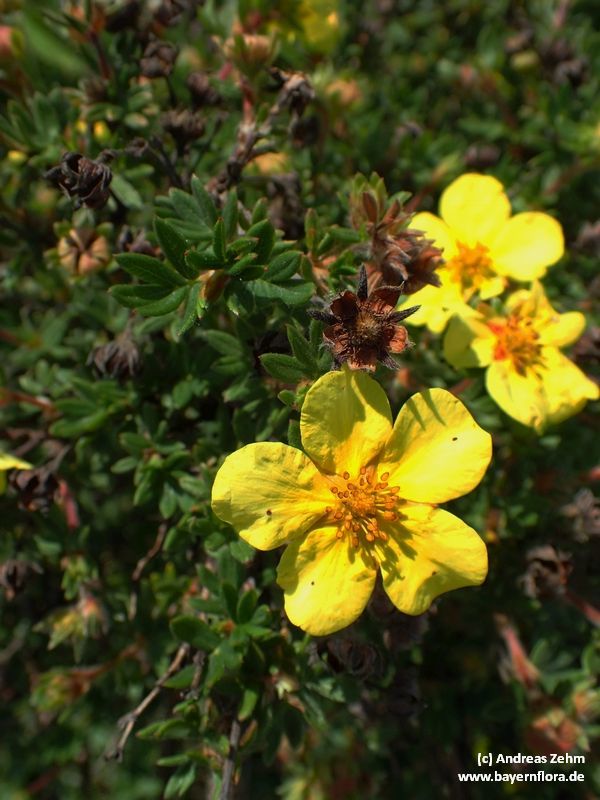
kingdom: Plantae
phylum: Tracheophyta
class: Magnoliopsida
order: Rosales
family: Rosaceae
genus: Dasiphora
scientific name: Dasiphora fruticosa
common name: Shrubby cinquefoil
